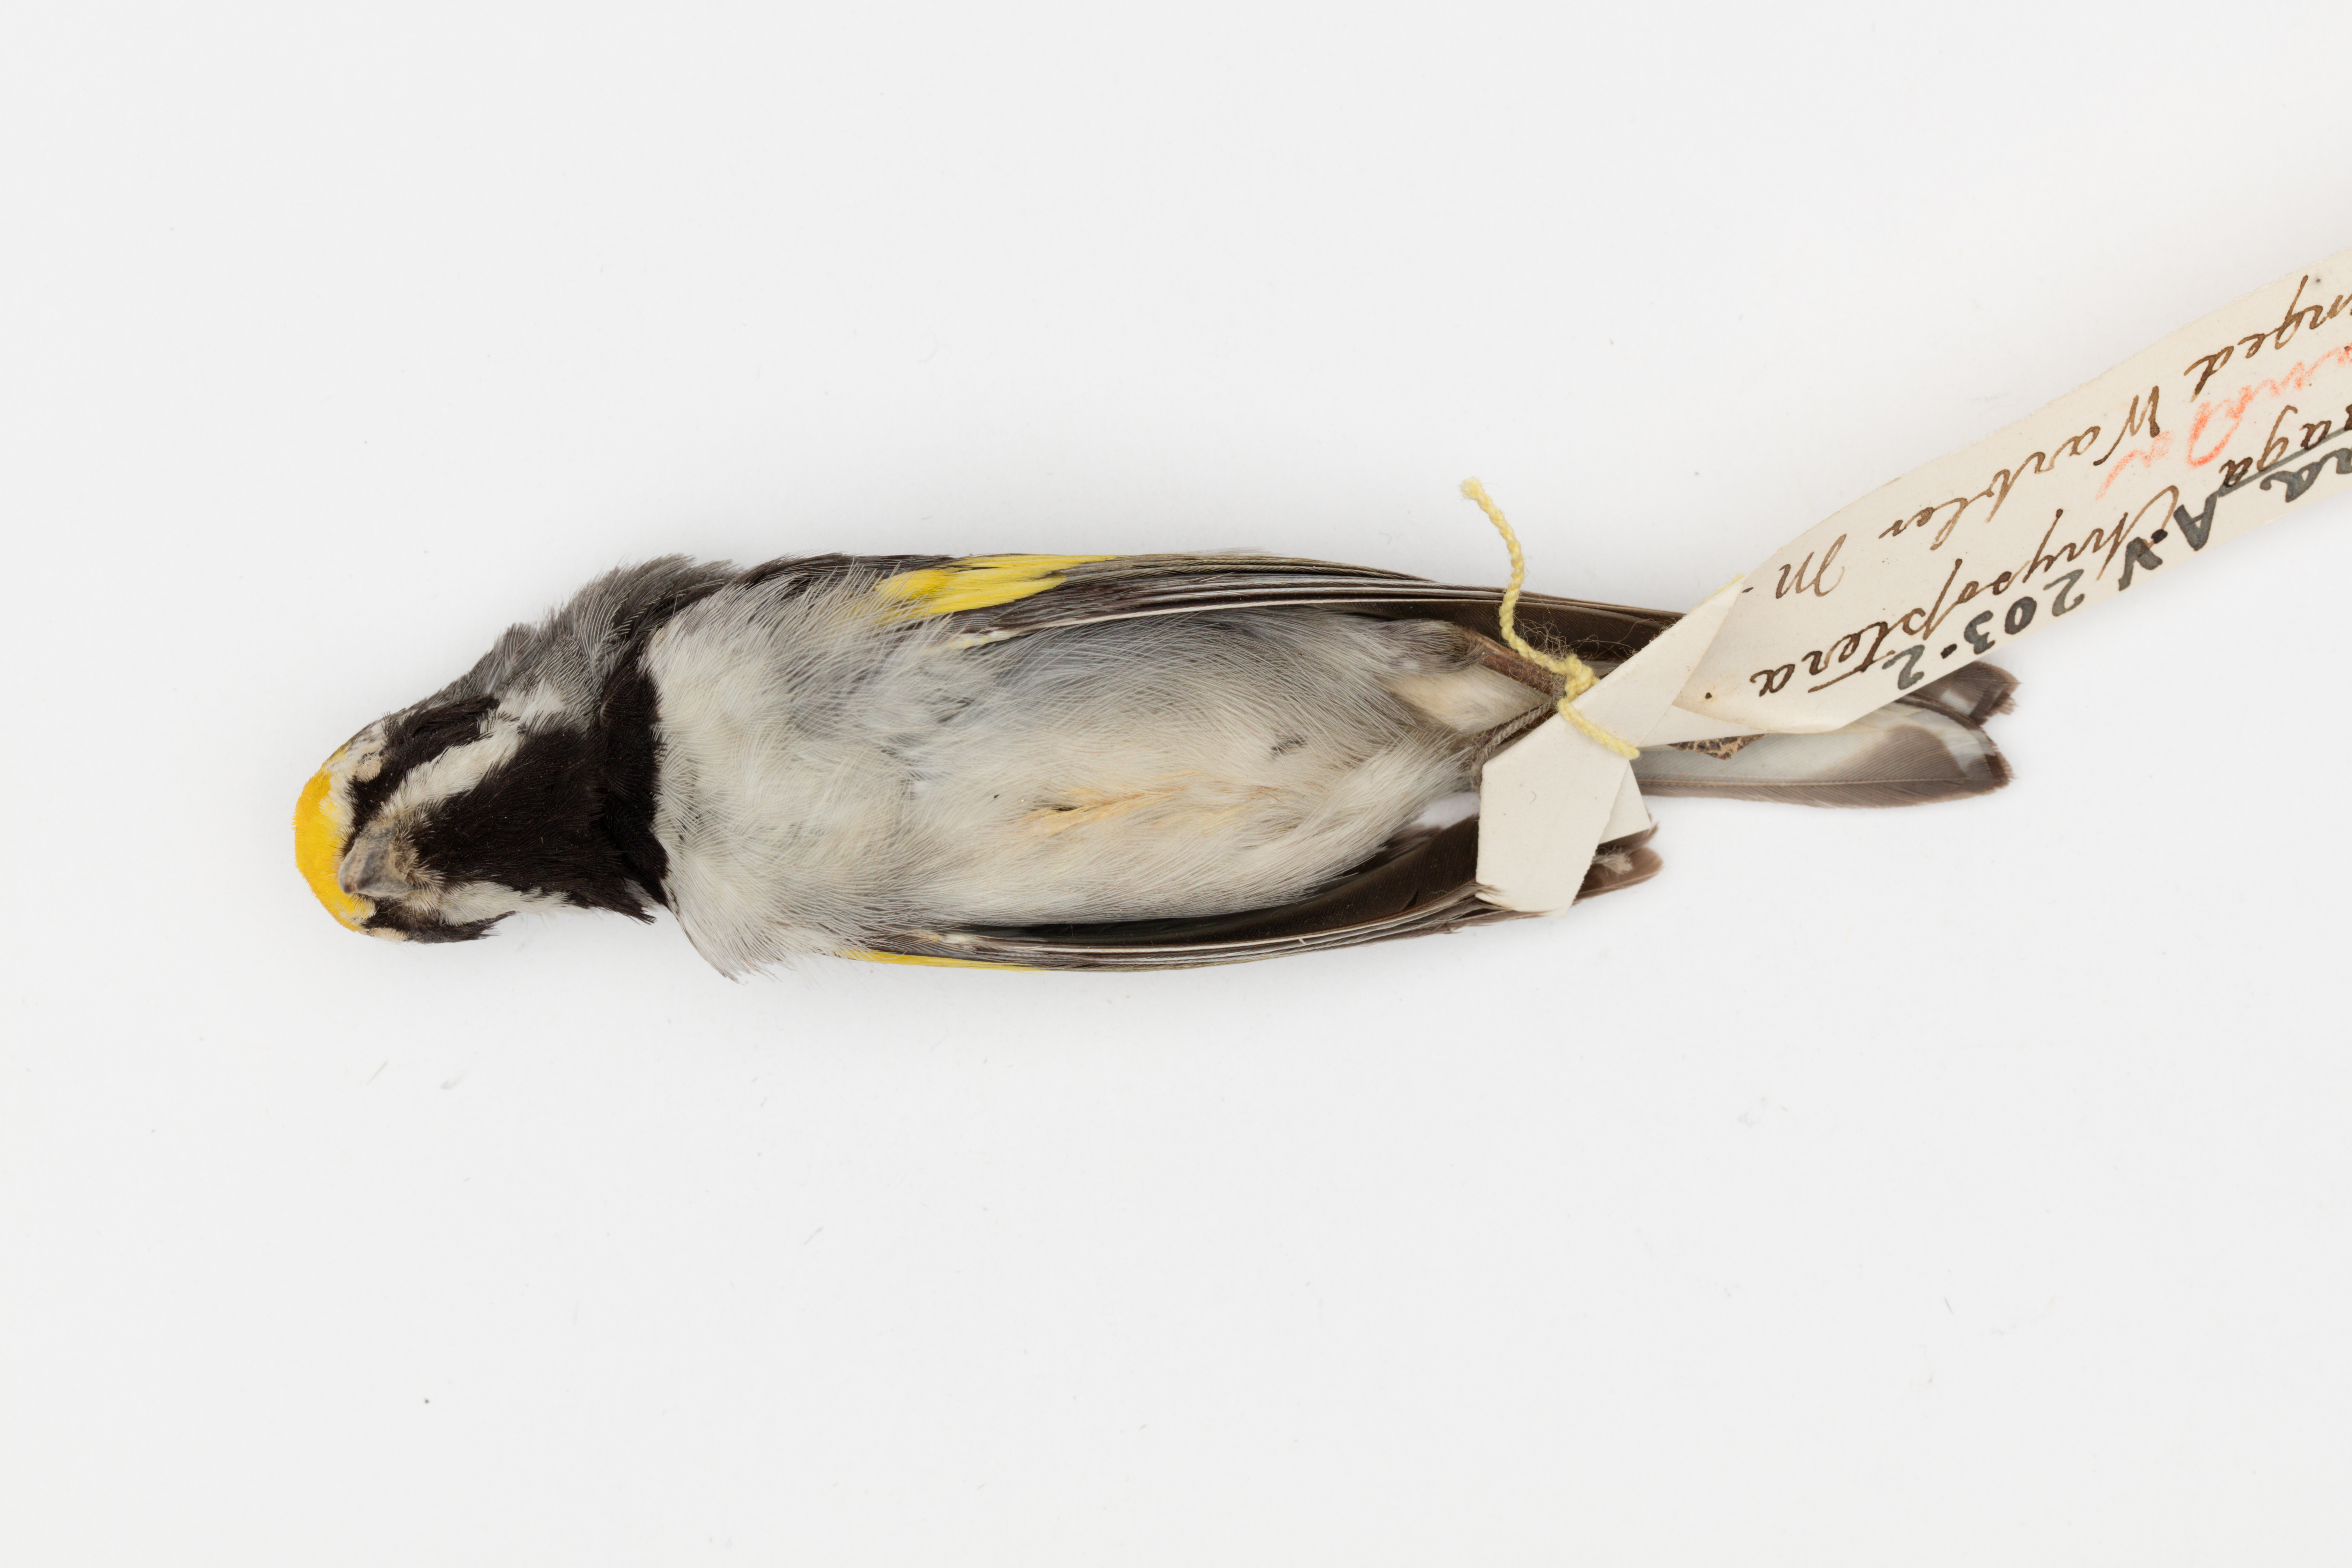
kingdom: Animalia
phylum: Chordata
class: Aves
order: Passeriformes
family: Parulidae
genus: Vermivora
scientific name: Vermivora chrysoptera
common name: Golden-winged warbler
